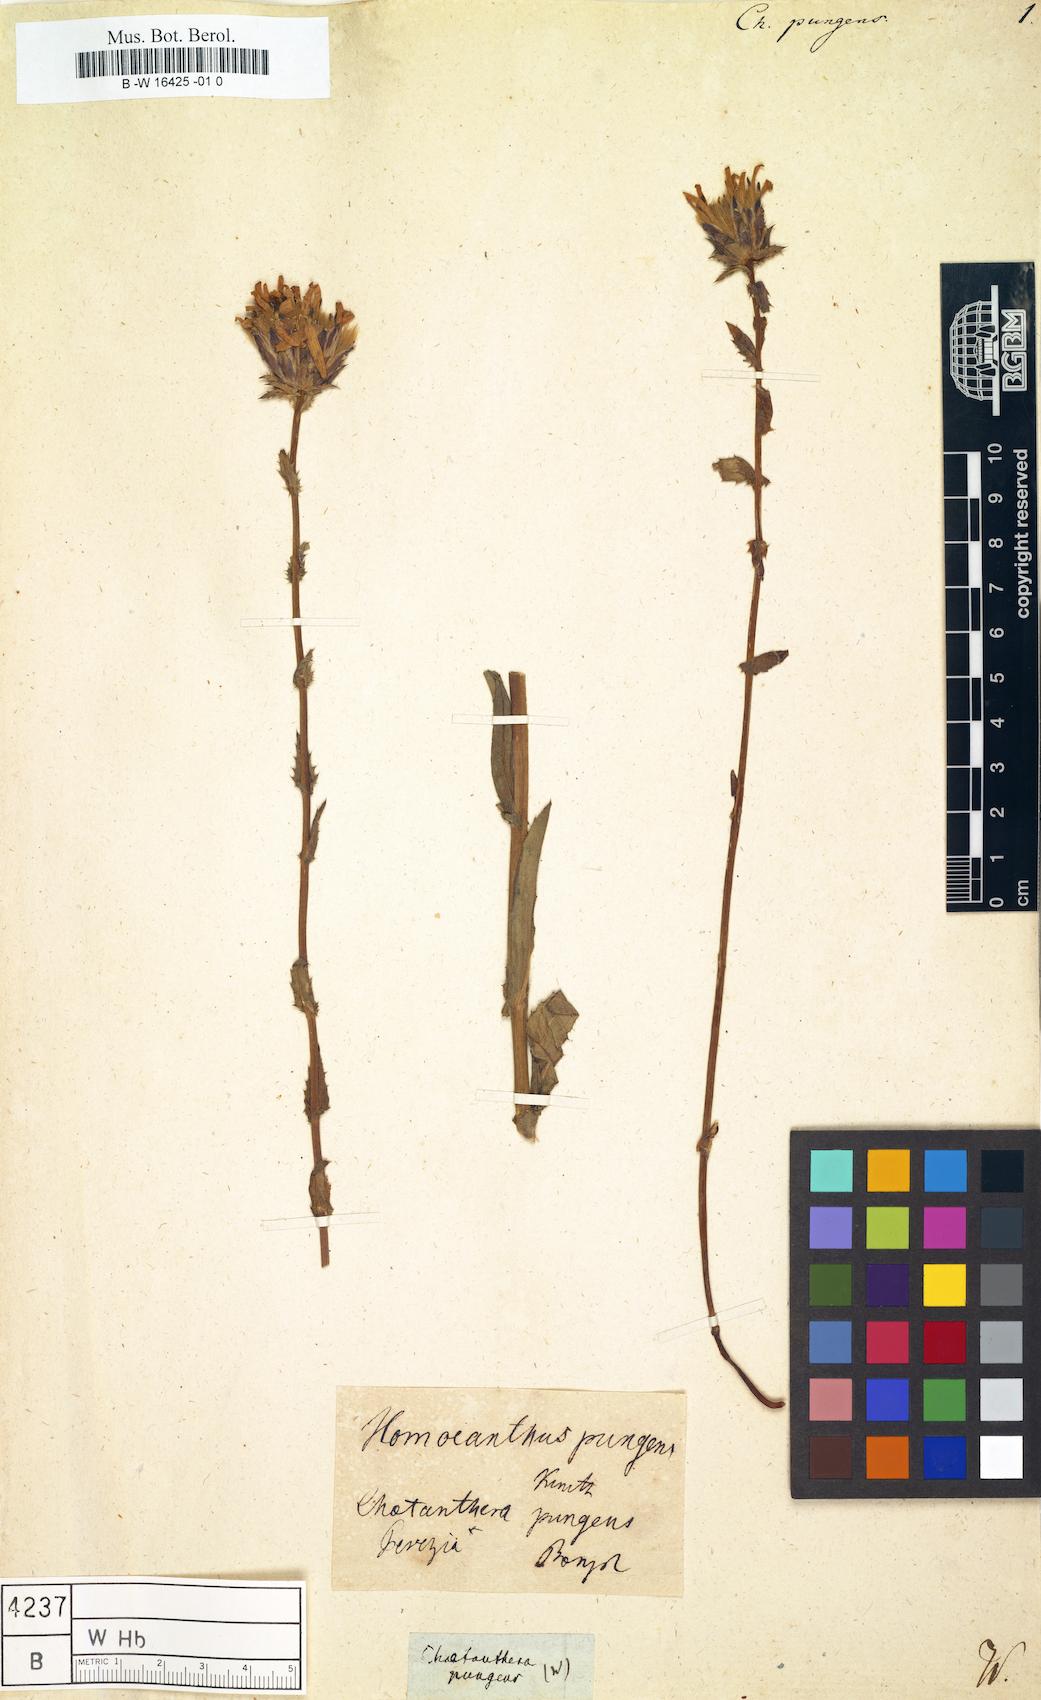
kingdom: Plantae
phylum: Tracheophyta
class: Magnoliopsida
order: Asterales
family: Asteraceae
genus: Perezia
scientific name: Perezia pungens
